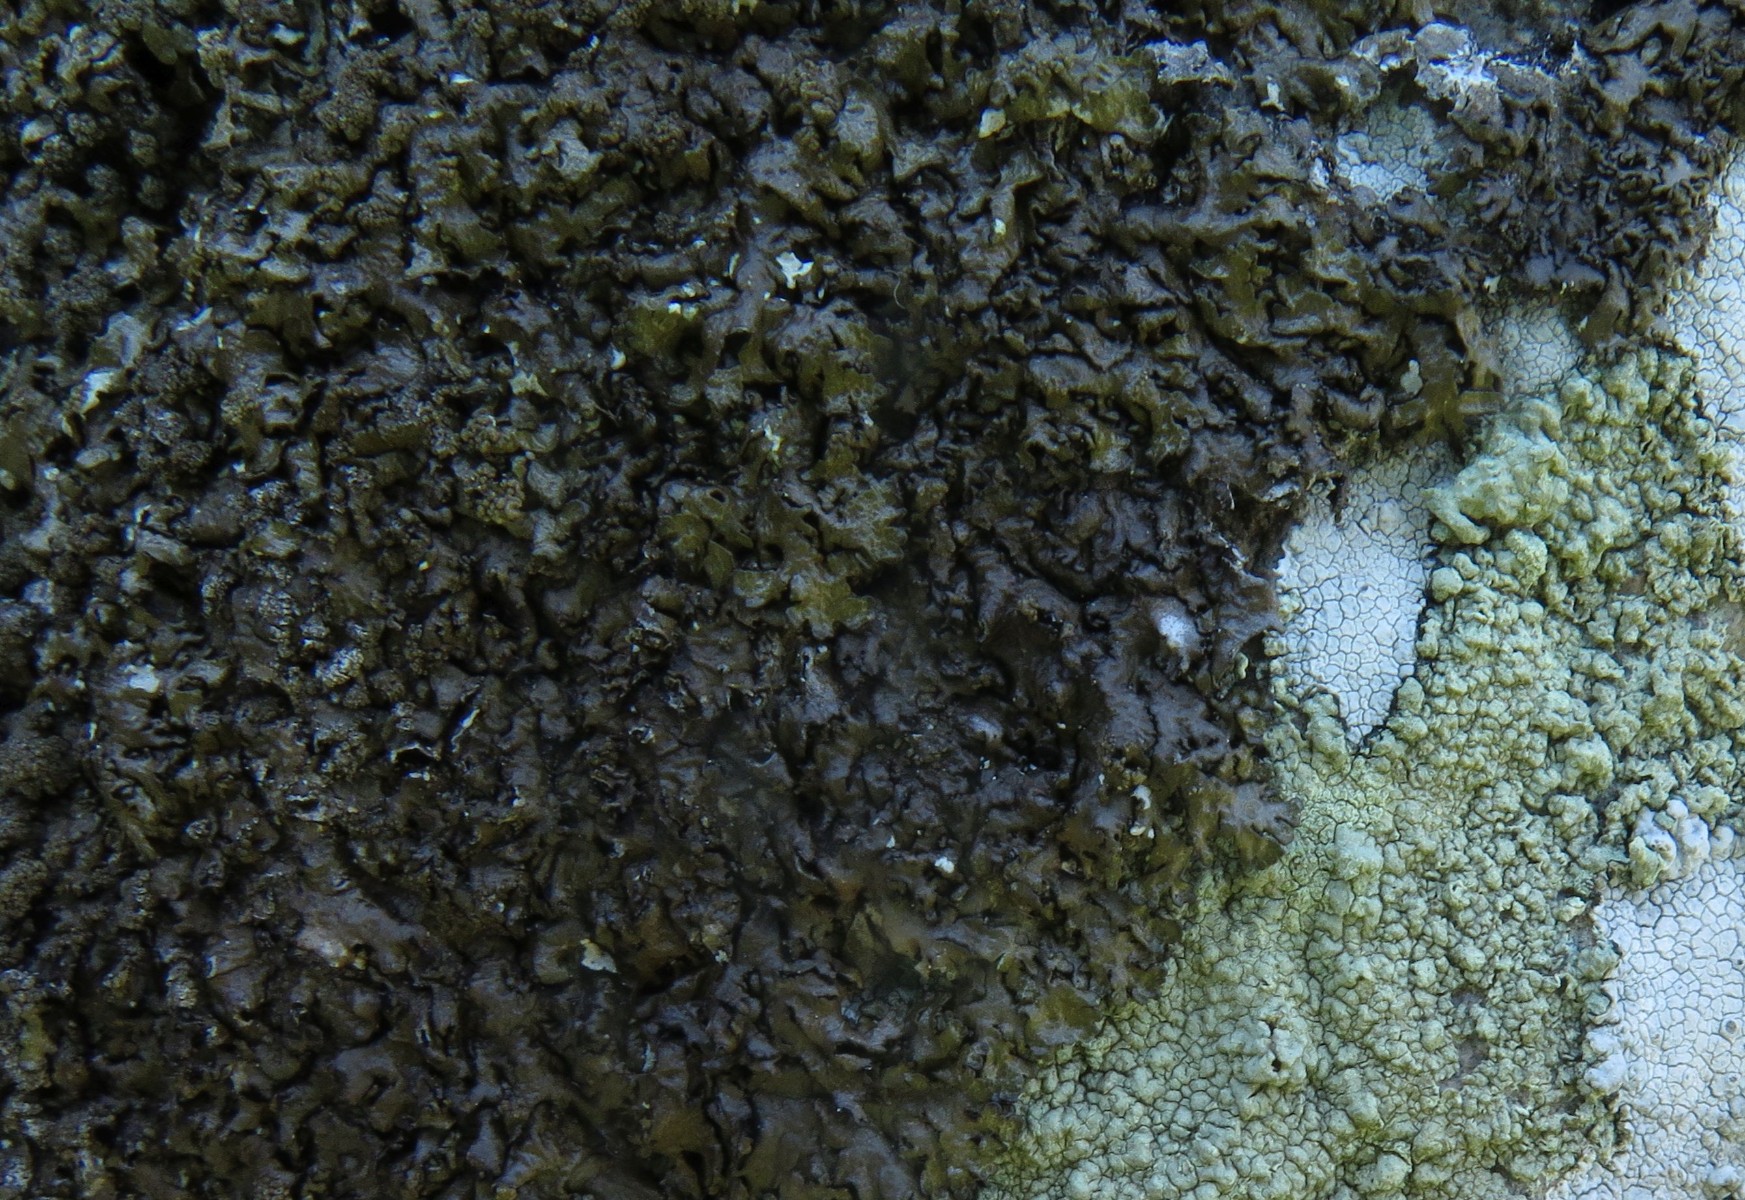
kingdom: Fungi
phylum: Ascomycota
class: Lecanoromycetes
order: Lecanorales
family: Parmeliaceae
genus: Xanthoparmelia
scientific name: Xanthoparmelia verruculifera
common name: småknoppet skållav
